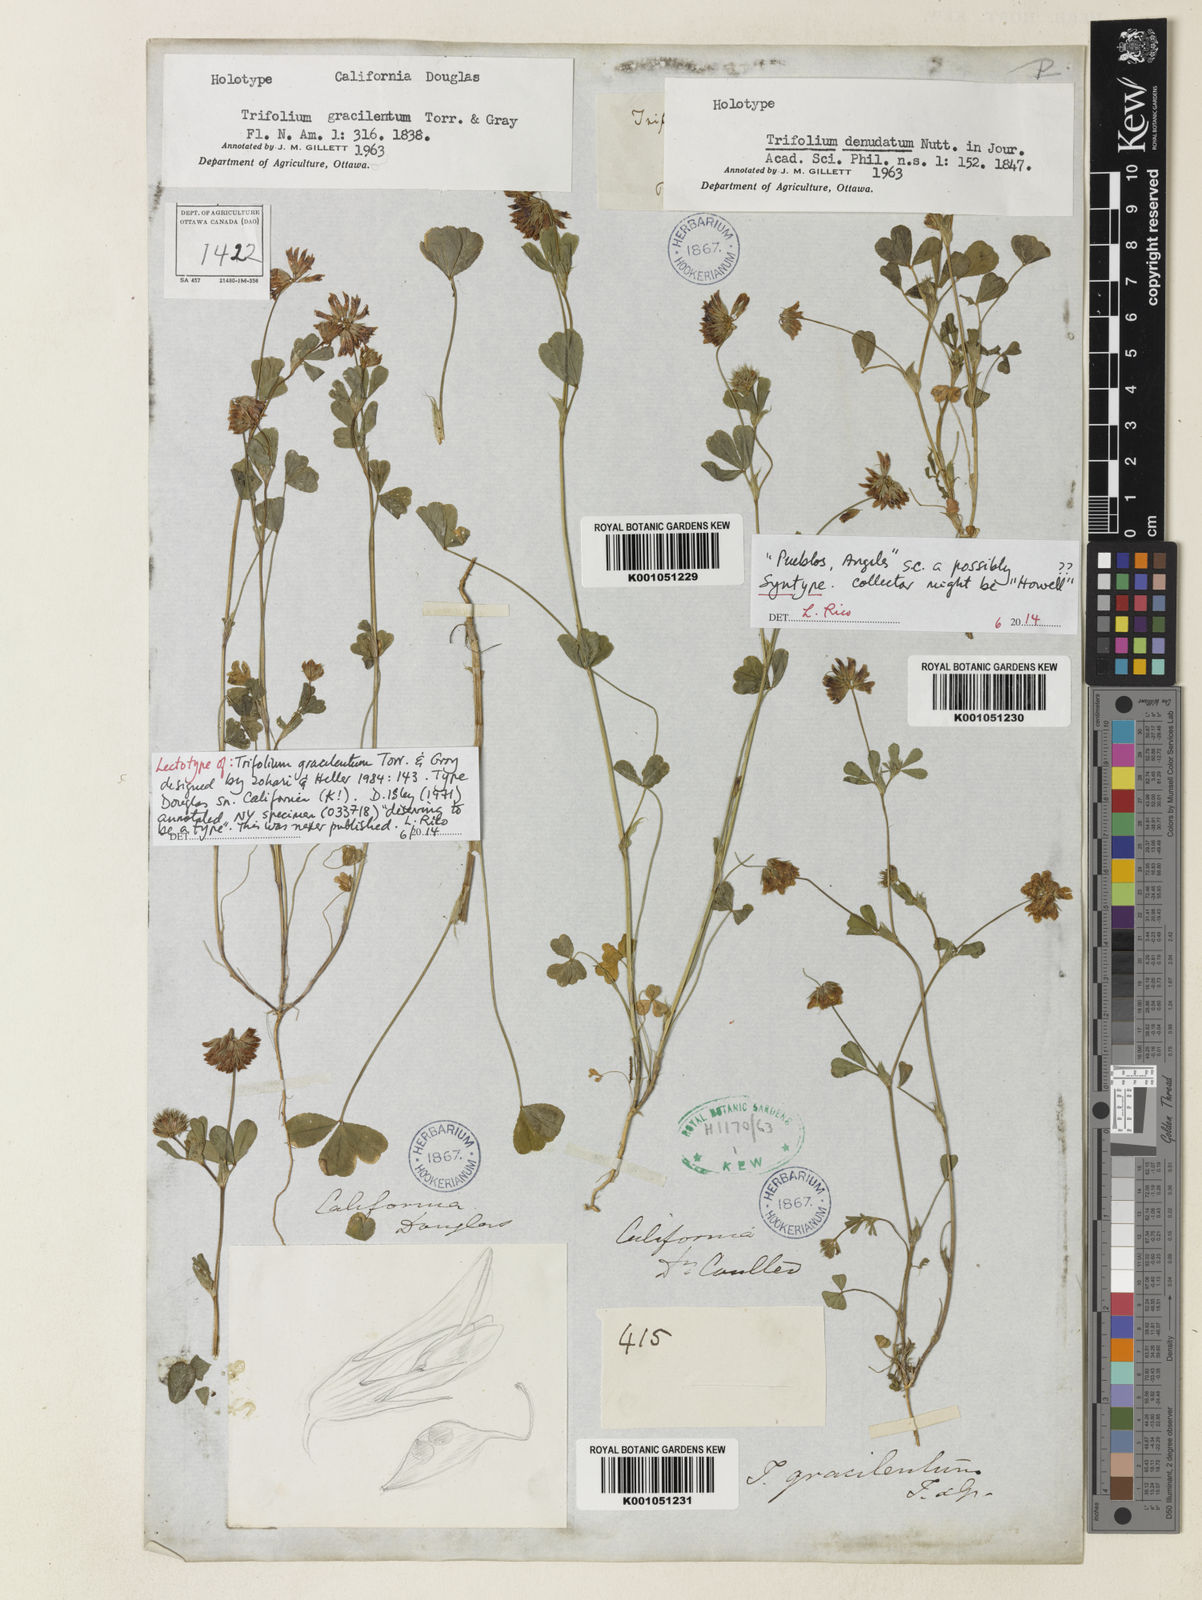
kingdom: Plantae
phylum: Tracheophyta
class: Magnoliopsida
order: Fabales
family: Fabaceae
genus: Trifolium
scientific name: Trifolium gracilentum
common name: Slender clover
